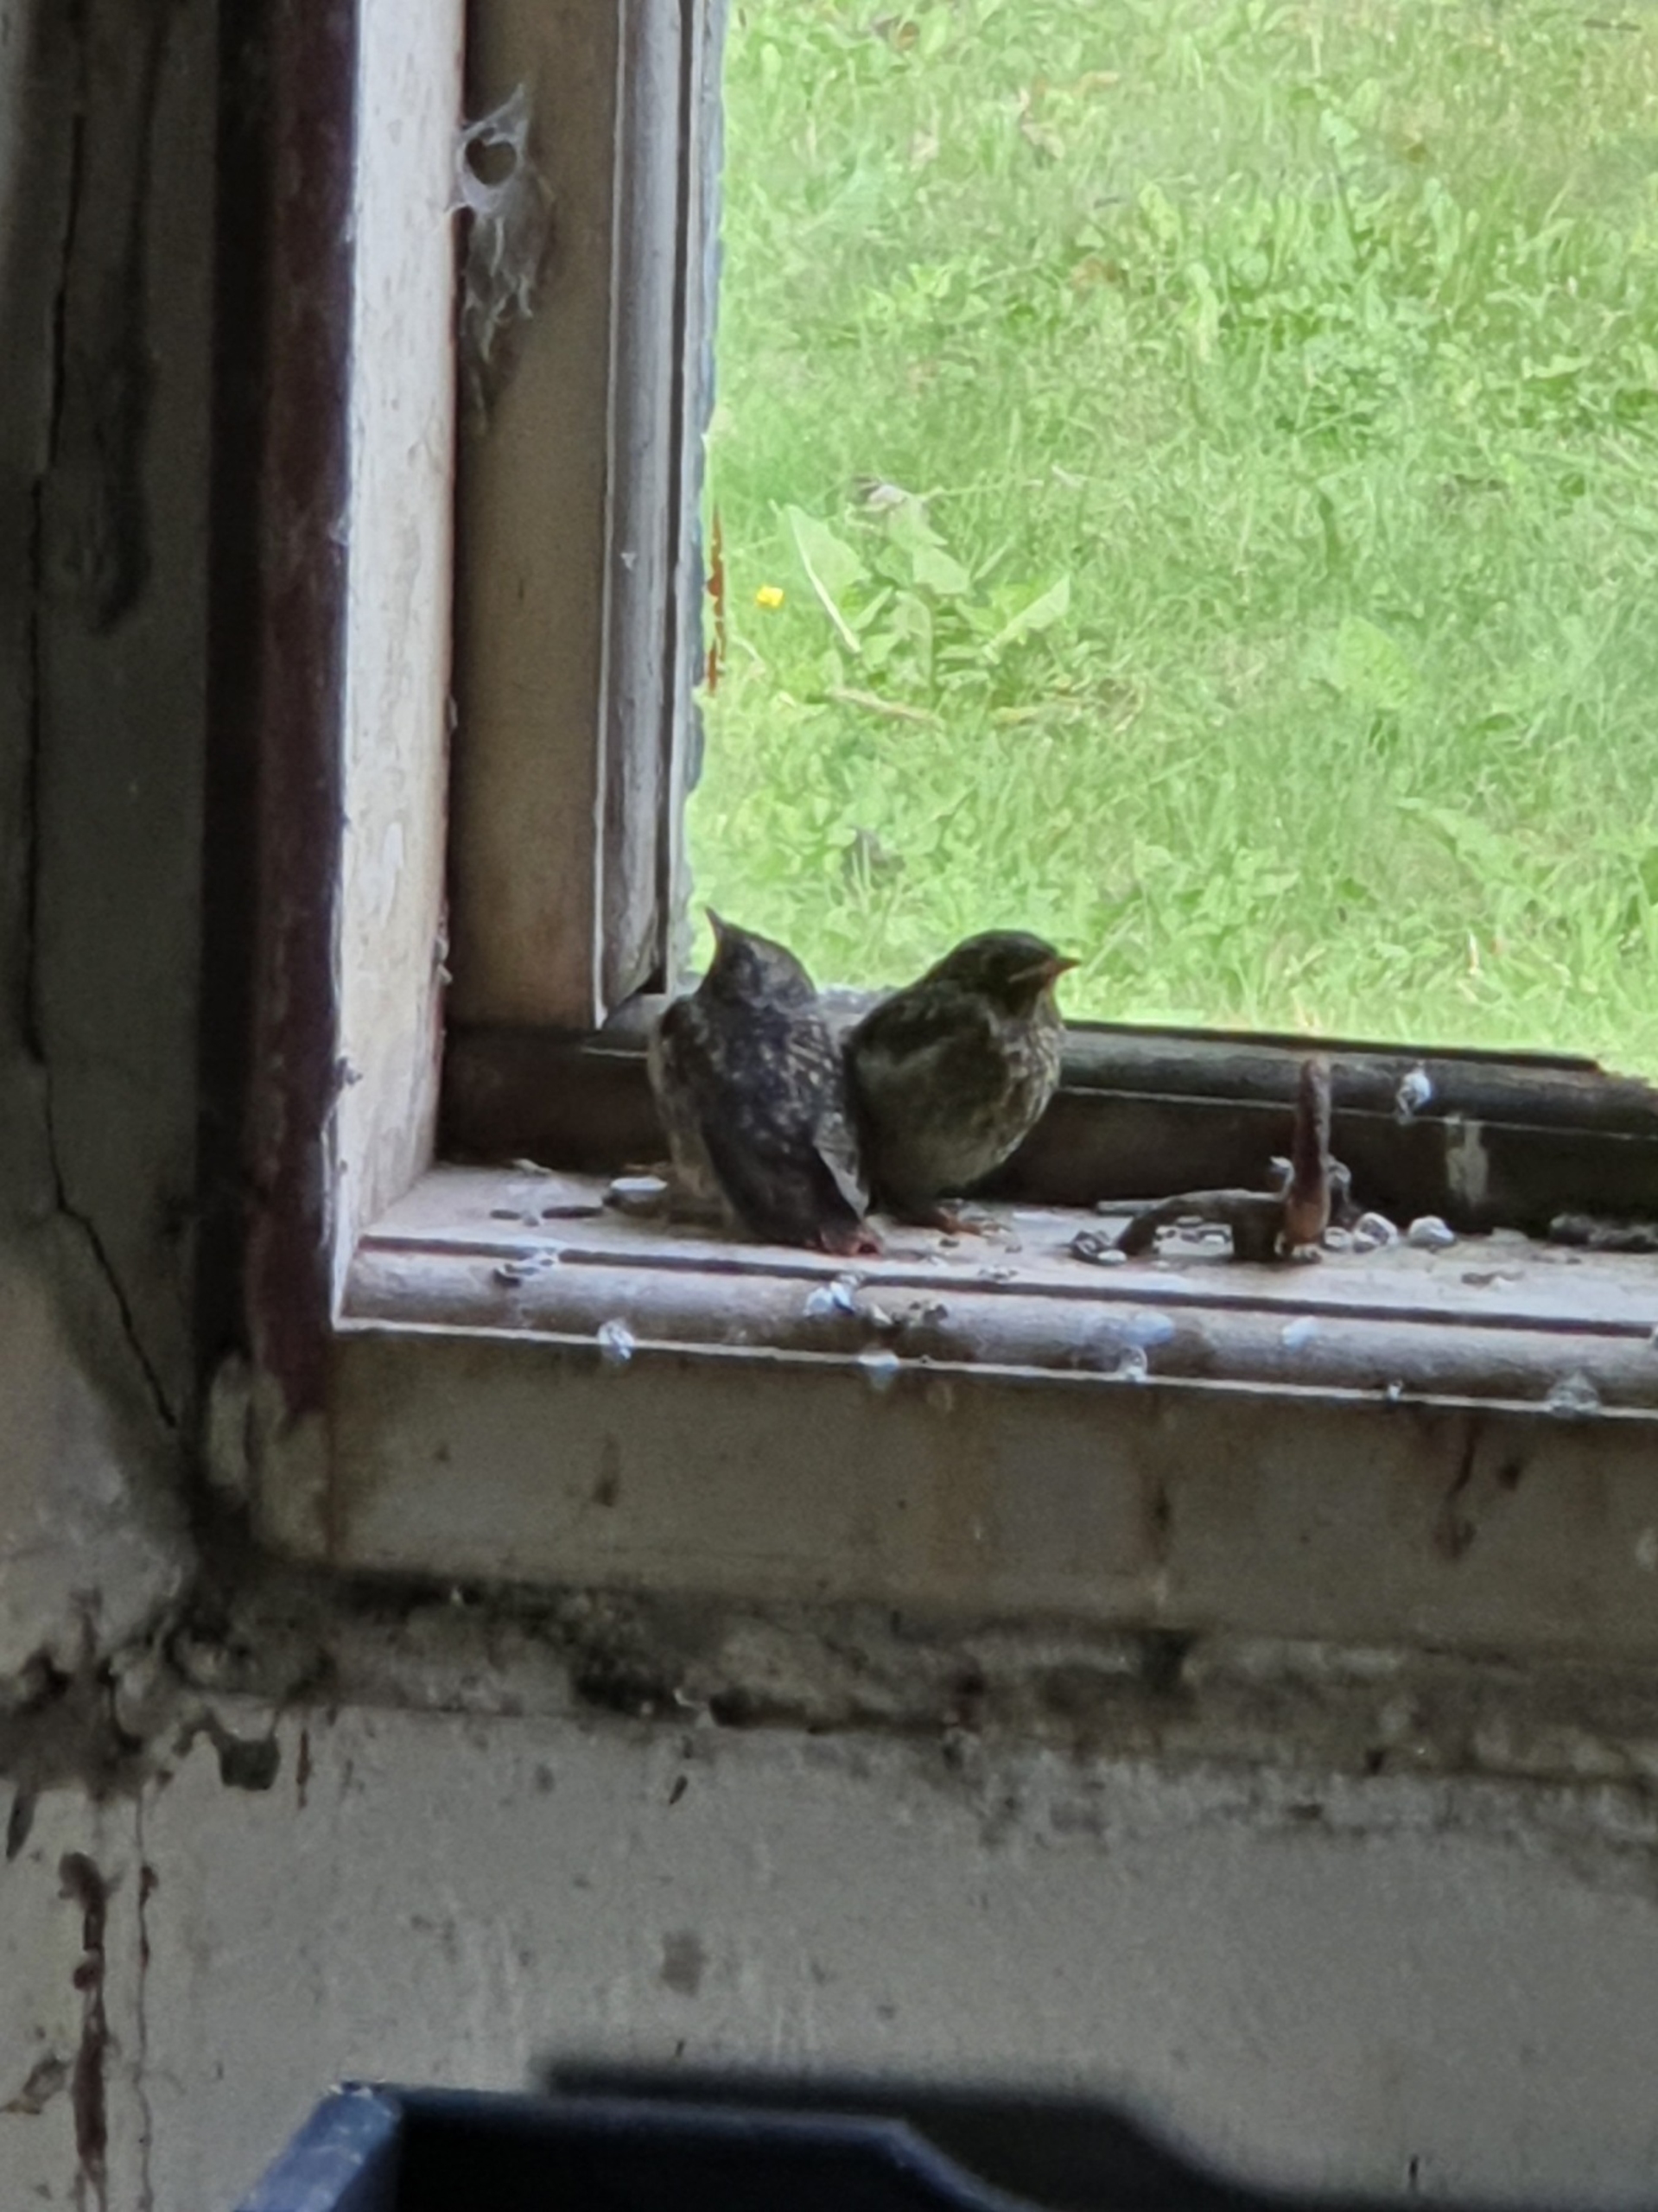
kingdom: Animalia
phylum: Chordata
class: Aves
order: Passeriformes
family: Muscicapidae
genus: Phoenicurus
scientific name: Phoenicurus phoenicurus
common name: Rødstjert
